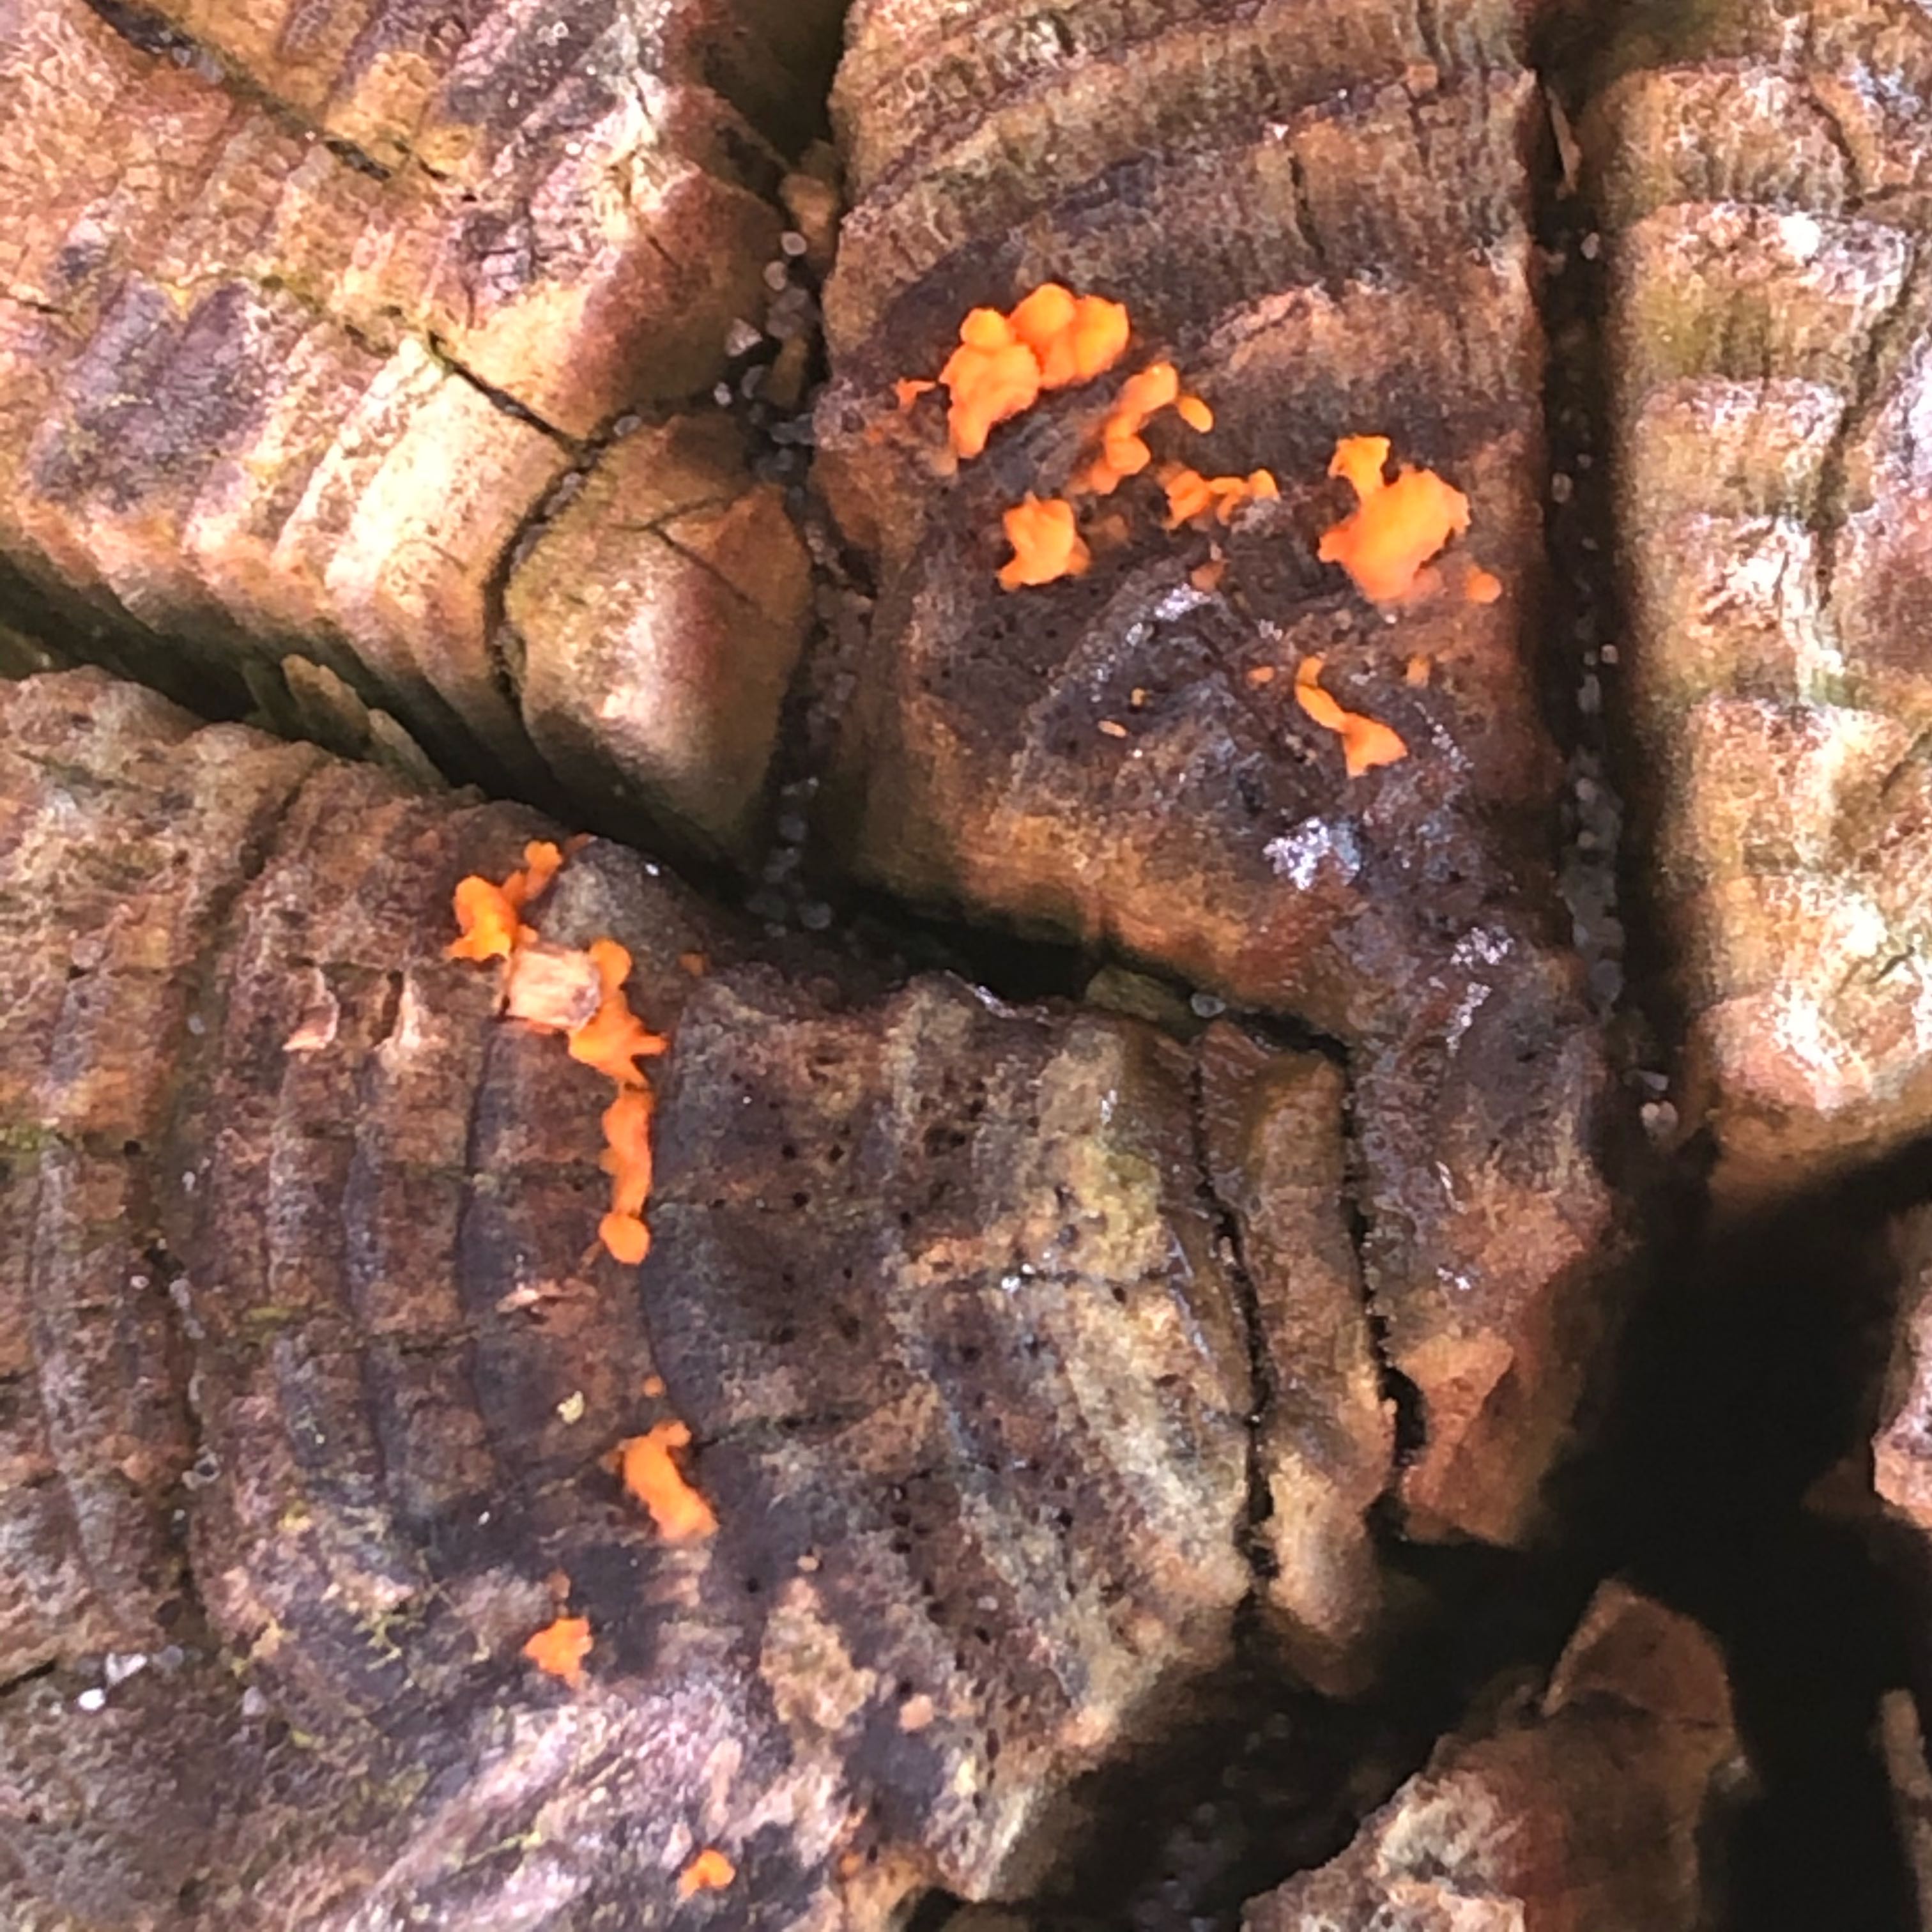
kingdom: Fungi
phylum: Basidiomycota
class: Dacrymycetes
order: Dacrymycetales
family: Dacrymycetaceae
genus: Dacrymyces
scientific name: Dacrymyces stillatus
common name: almindelig tåresvamp
